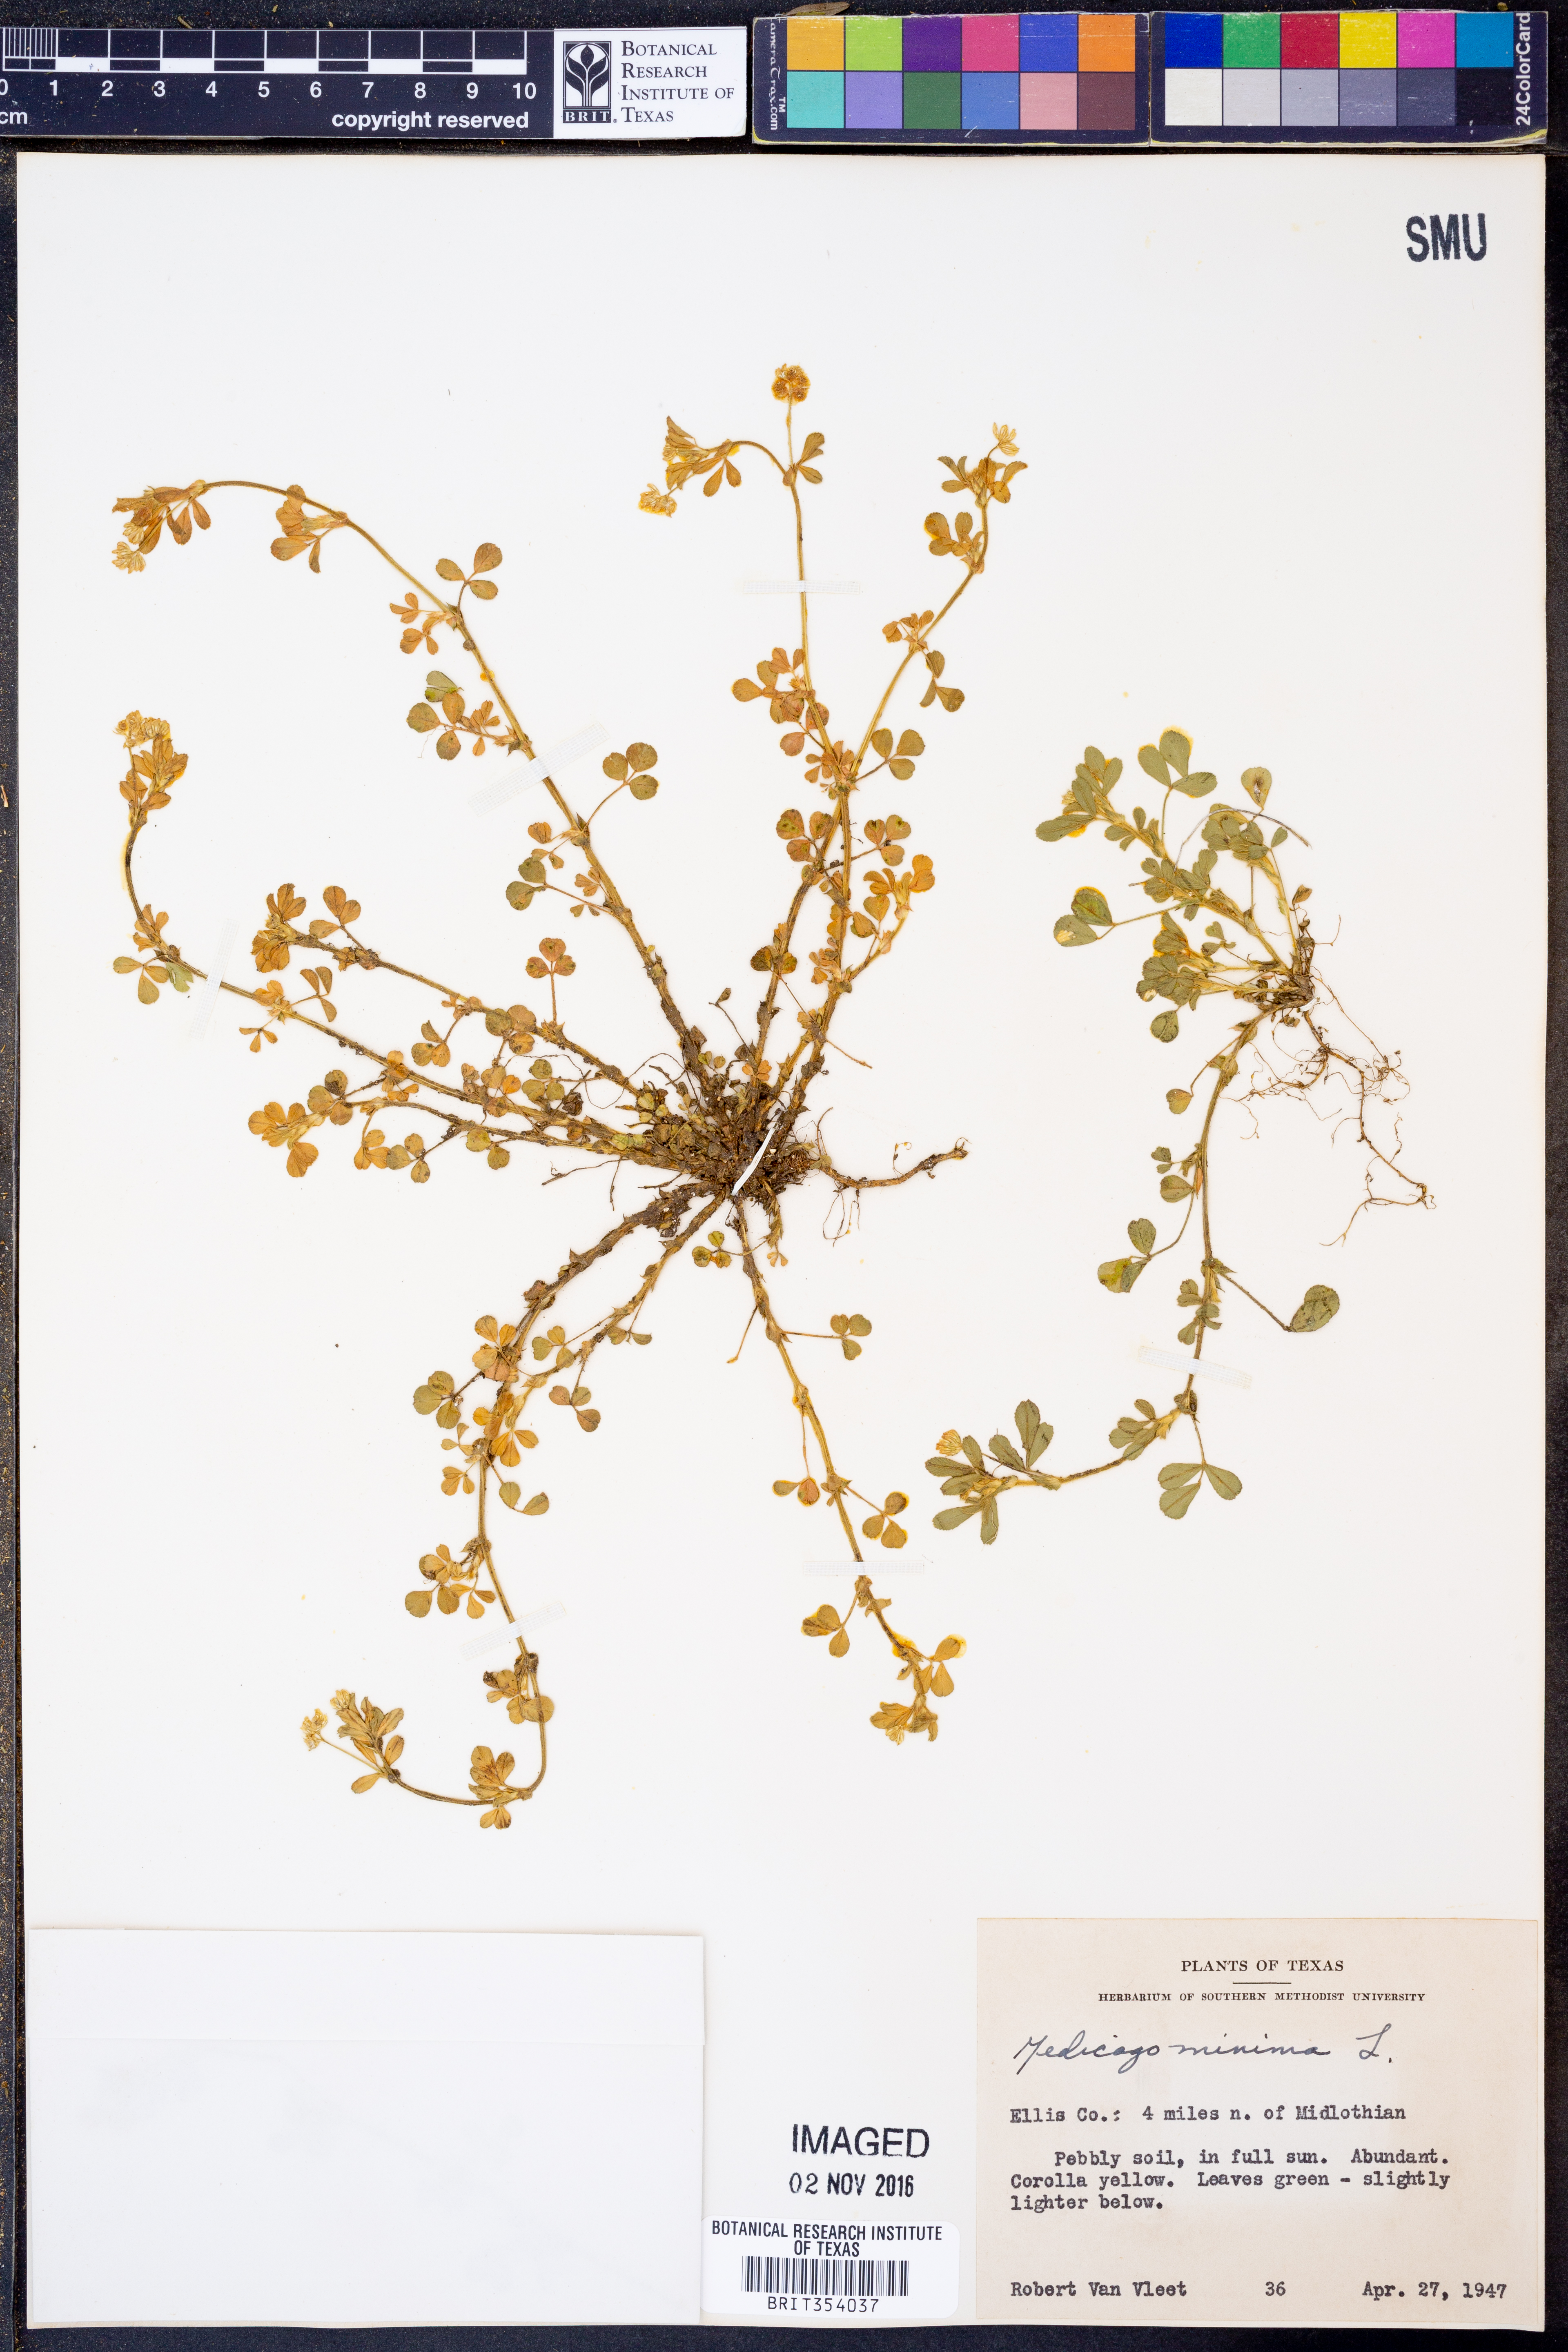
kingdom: Plantae
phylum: Tracheophyta
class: Magnoliopsida
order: Fabales
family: Fabaceae
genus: Medicago
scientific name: Medicago minima
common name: Little bur-clover
